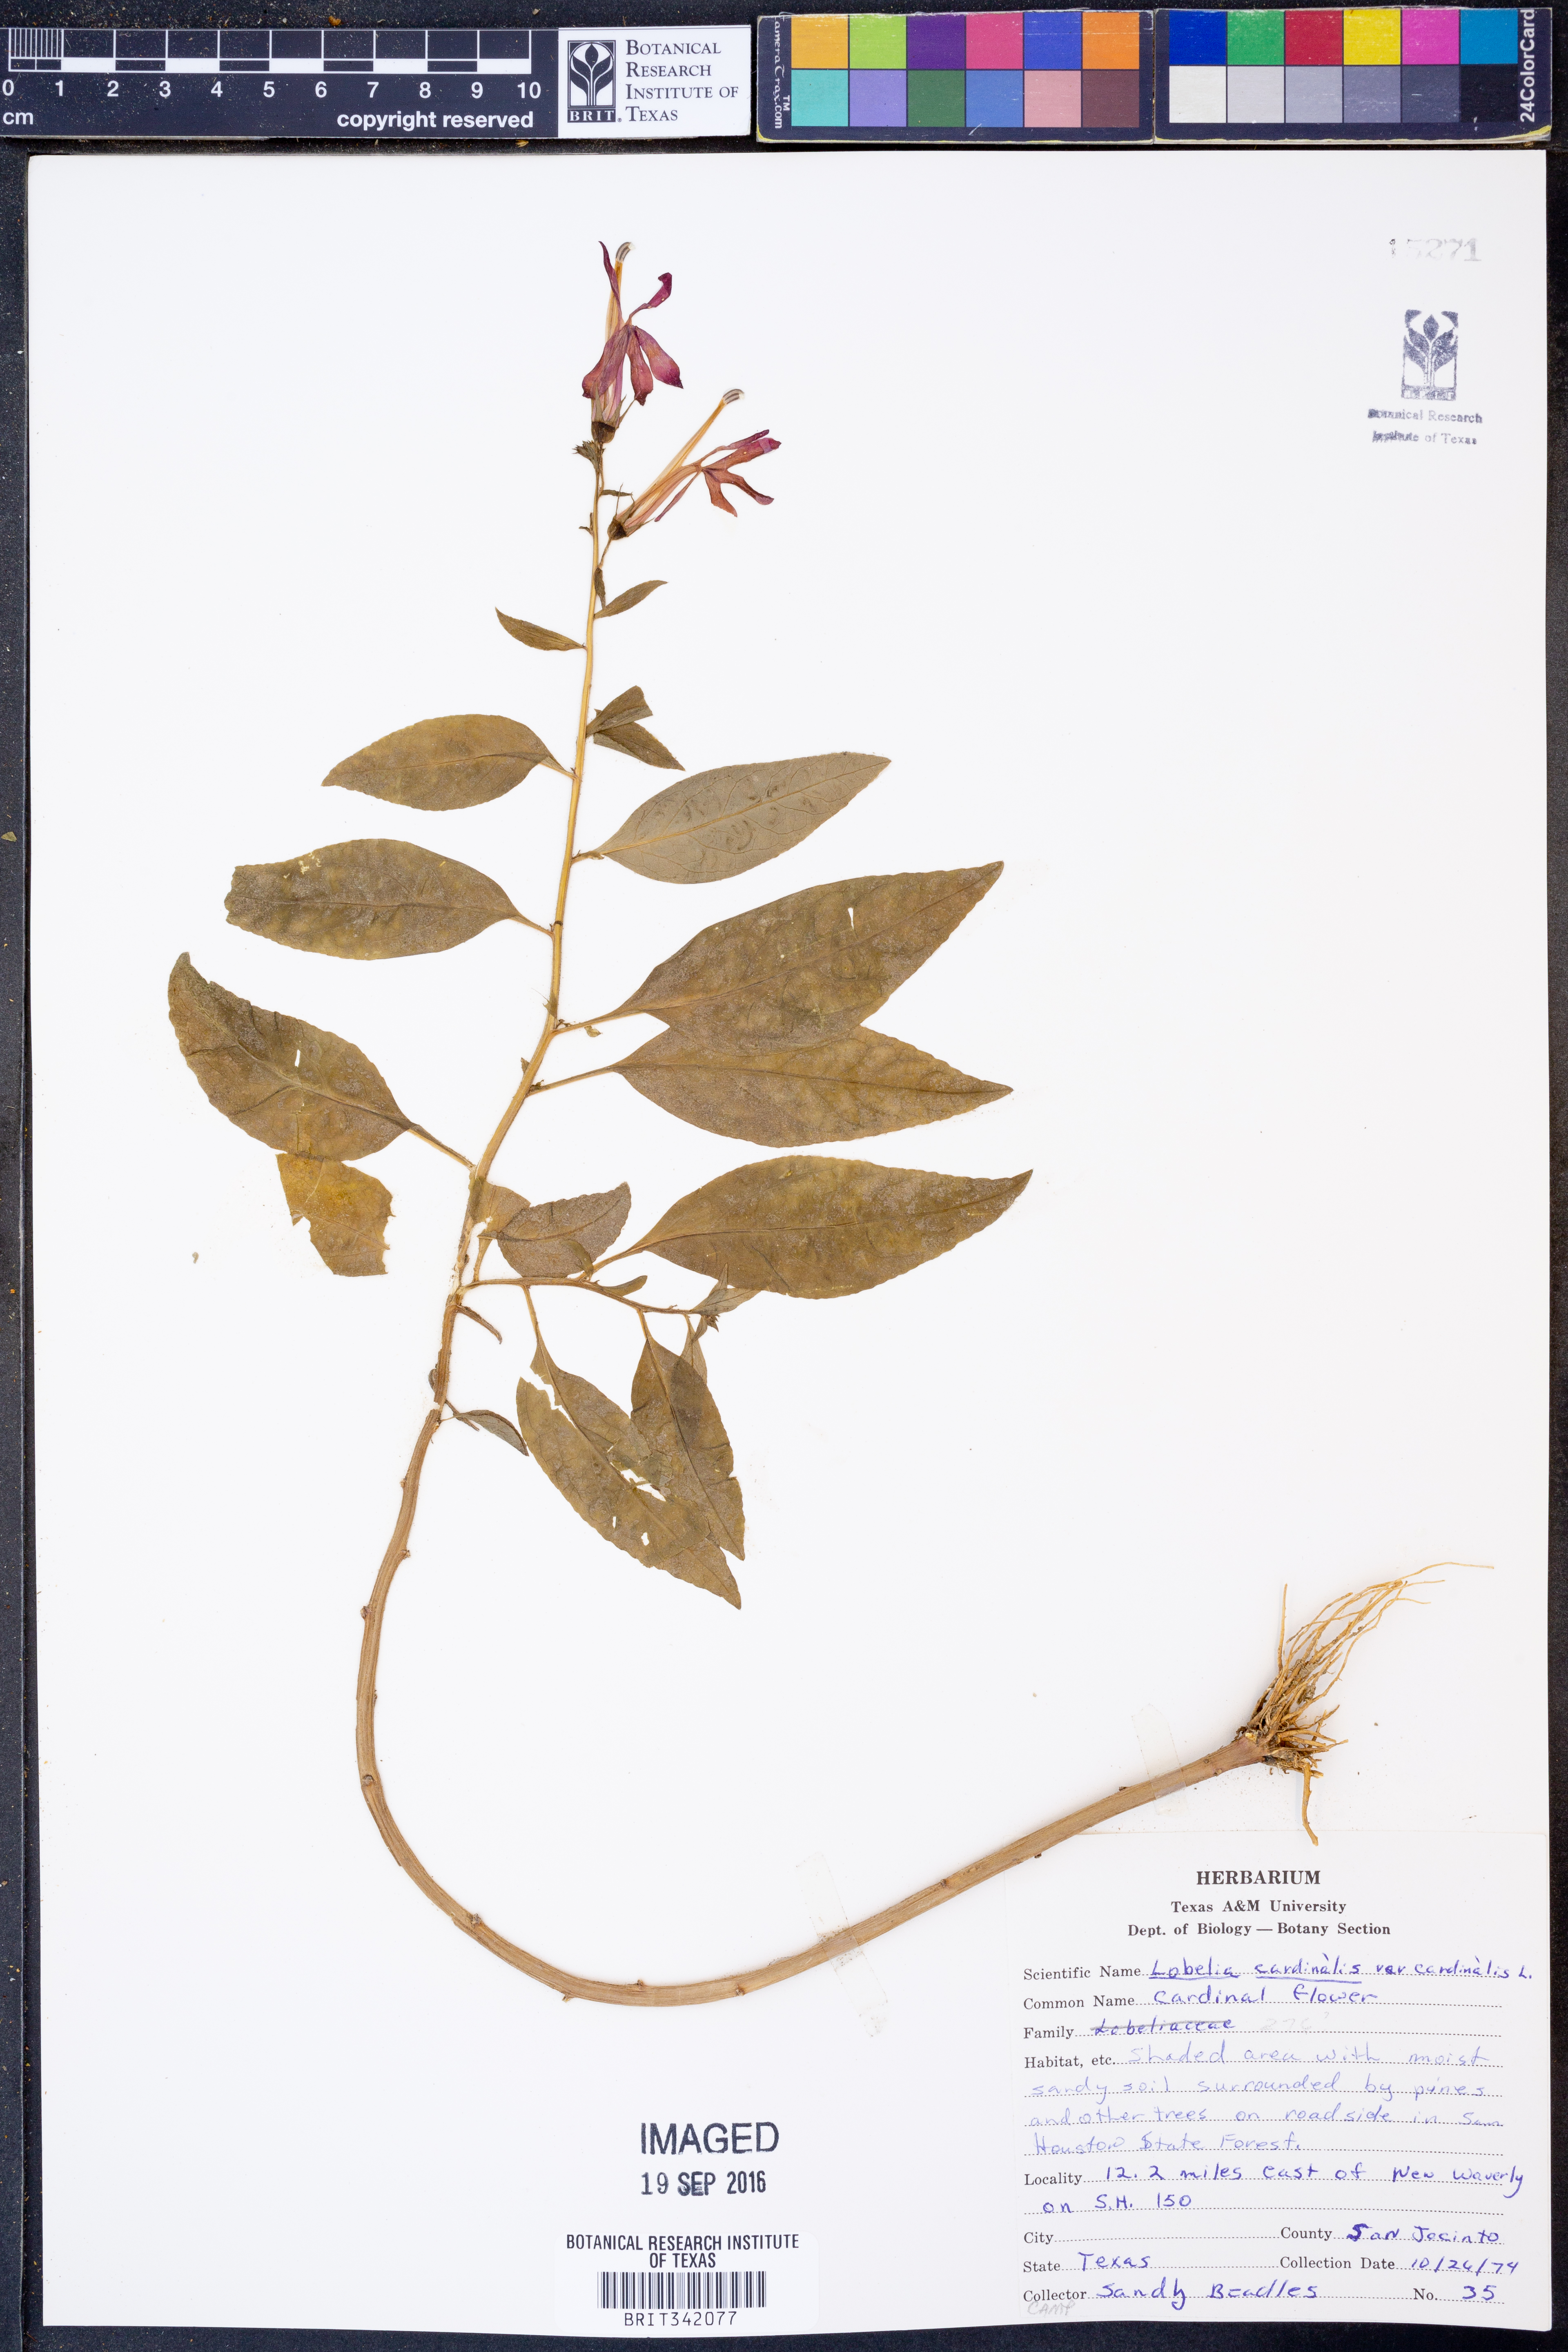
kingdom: Plantae
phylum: Tracheophyta
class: Magnoliopsida
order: Asterales
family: Campanulaceae
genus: Lobelia
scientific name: Lobelia cardinalis
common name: Cardinal flower
